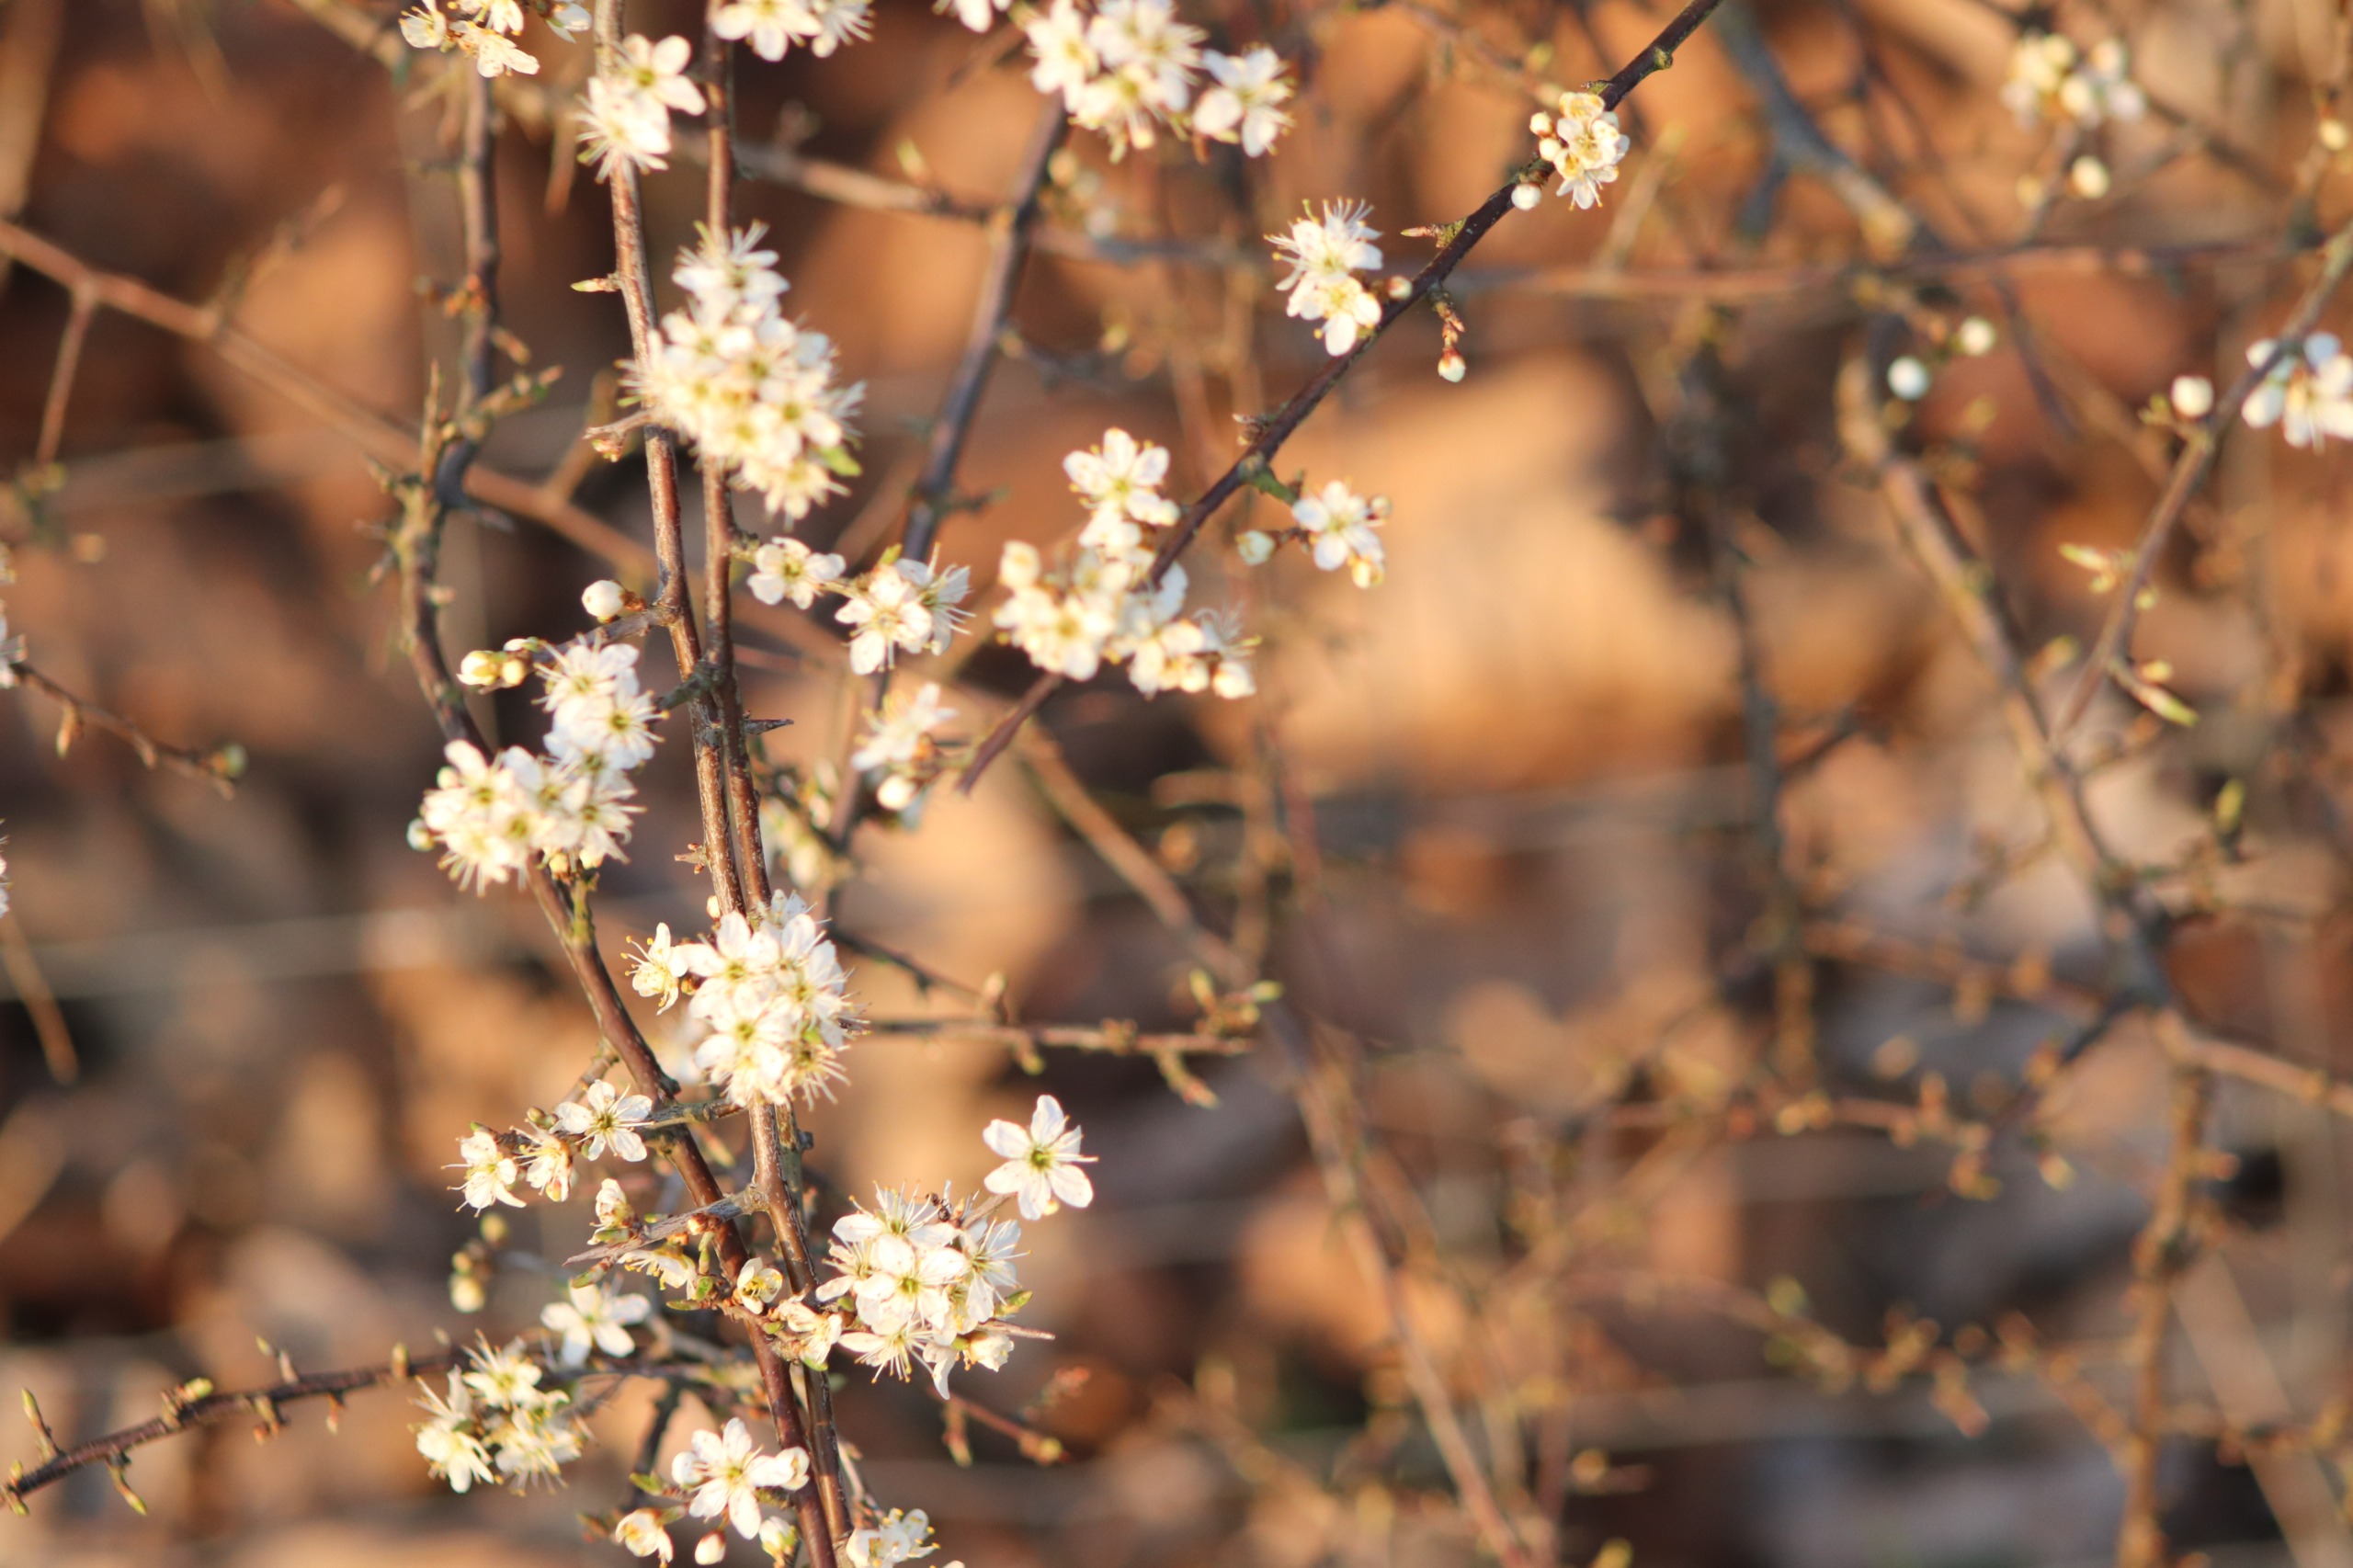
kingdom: Plantae
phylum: Tracheophyta
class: Magnoliopsida
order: Rosales
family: Rosaceae
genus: Prunus
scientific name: Prunus spinosa
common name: Slåen
